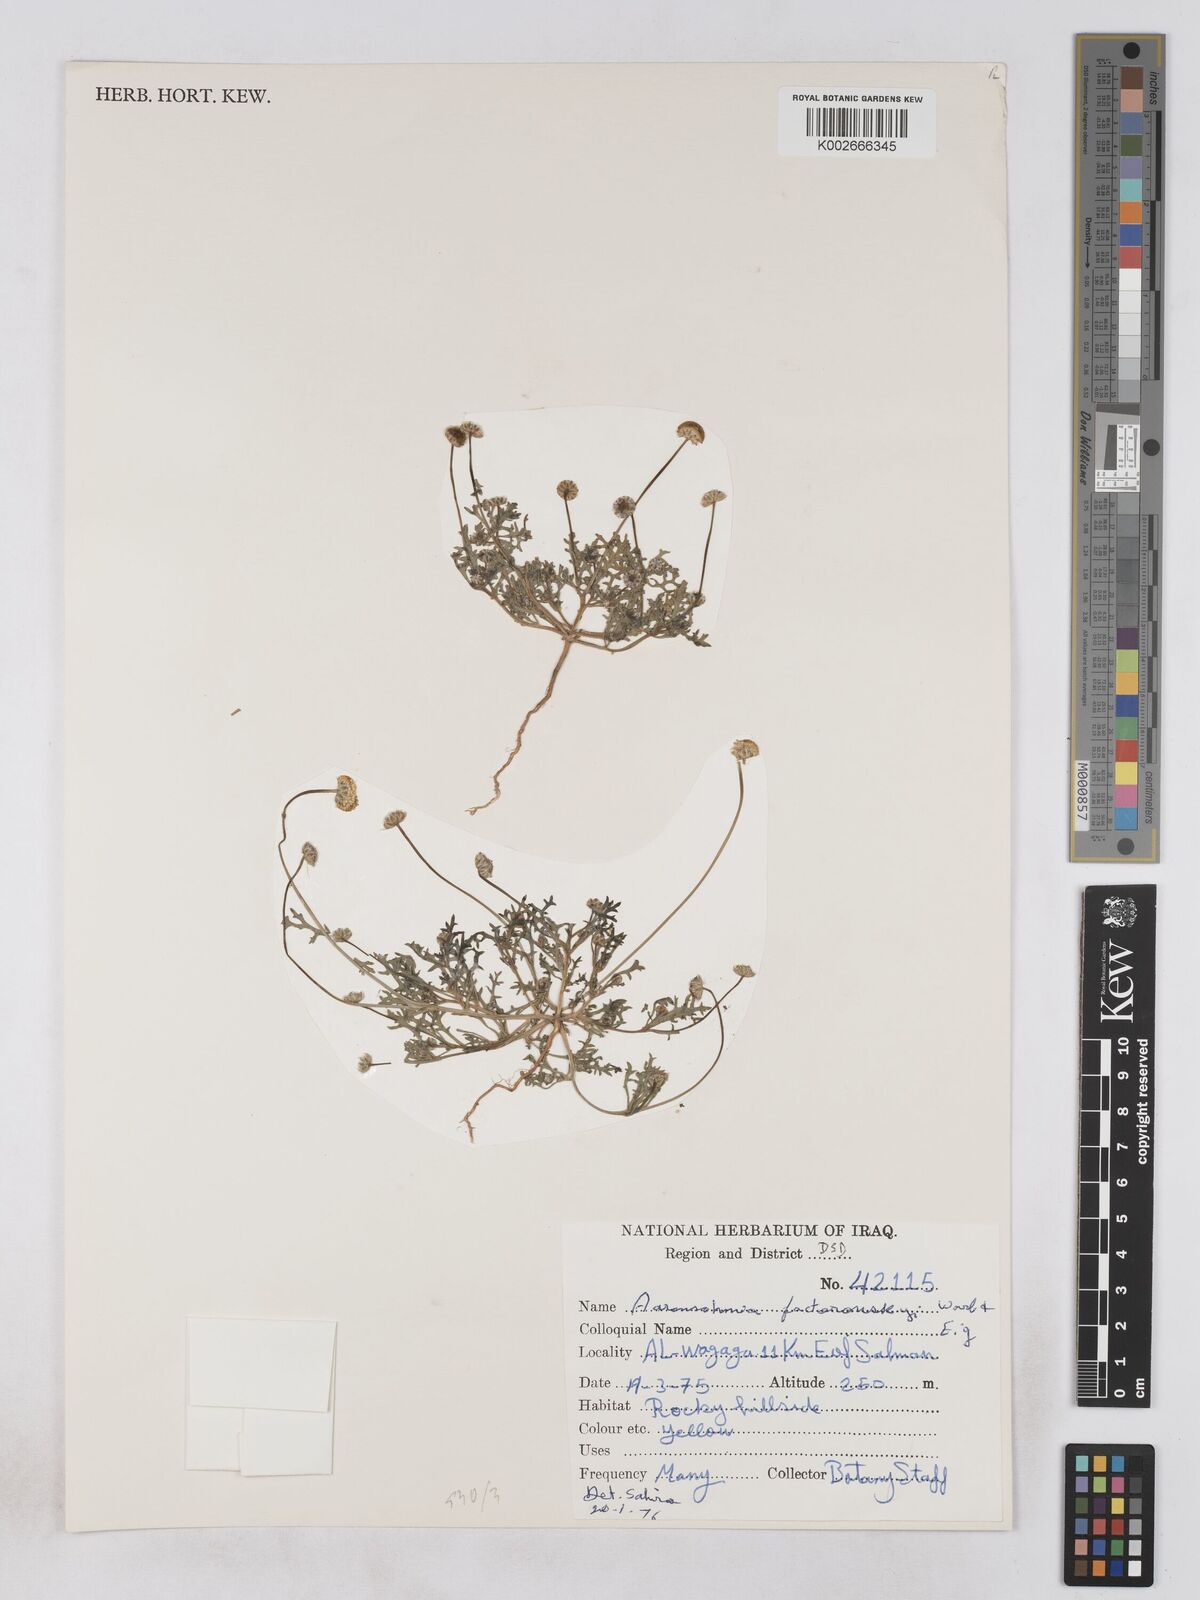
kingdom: Plantae
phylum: Tracheophyta
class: Magnoliopsida
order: Asterales
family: Asteraceae
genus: Otoglyphis
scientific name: Otoglyphis factorovskyi
